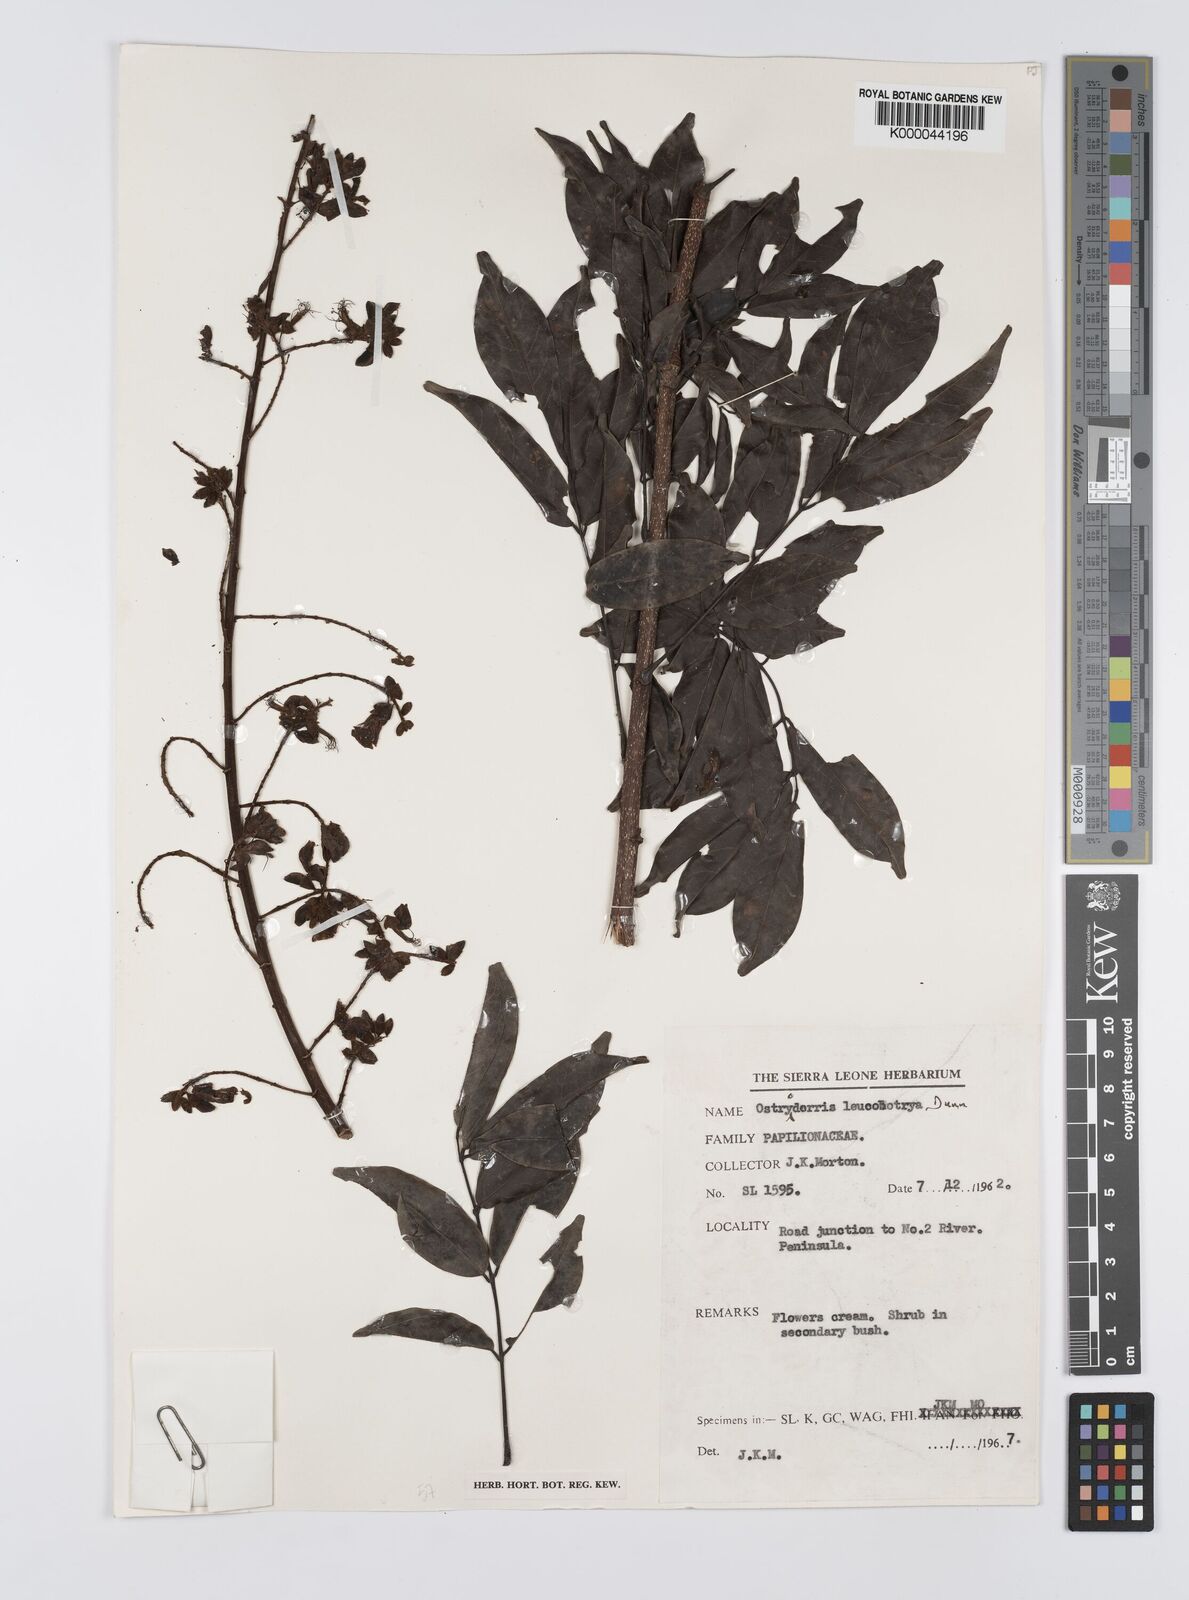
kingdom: Plantae
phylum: Tracheophyta
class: Magnoliopsida
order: Fabales
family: Fabaceae
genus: Aganope
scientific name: Aganope leucobotrya
